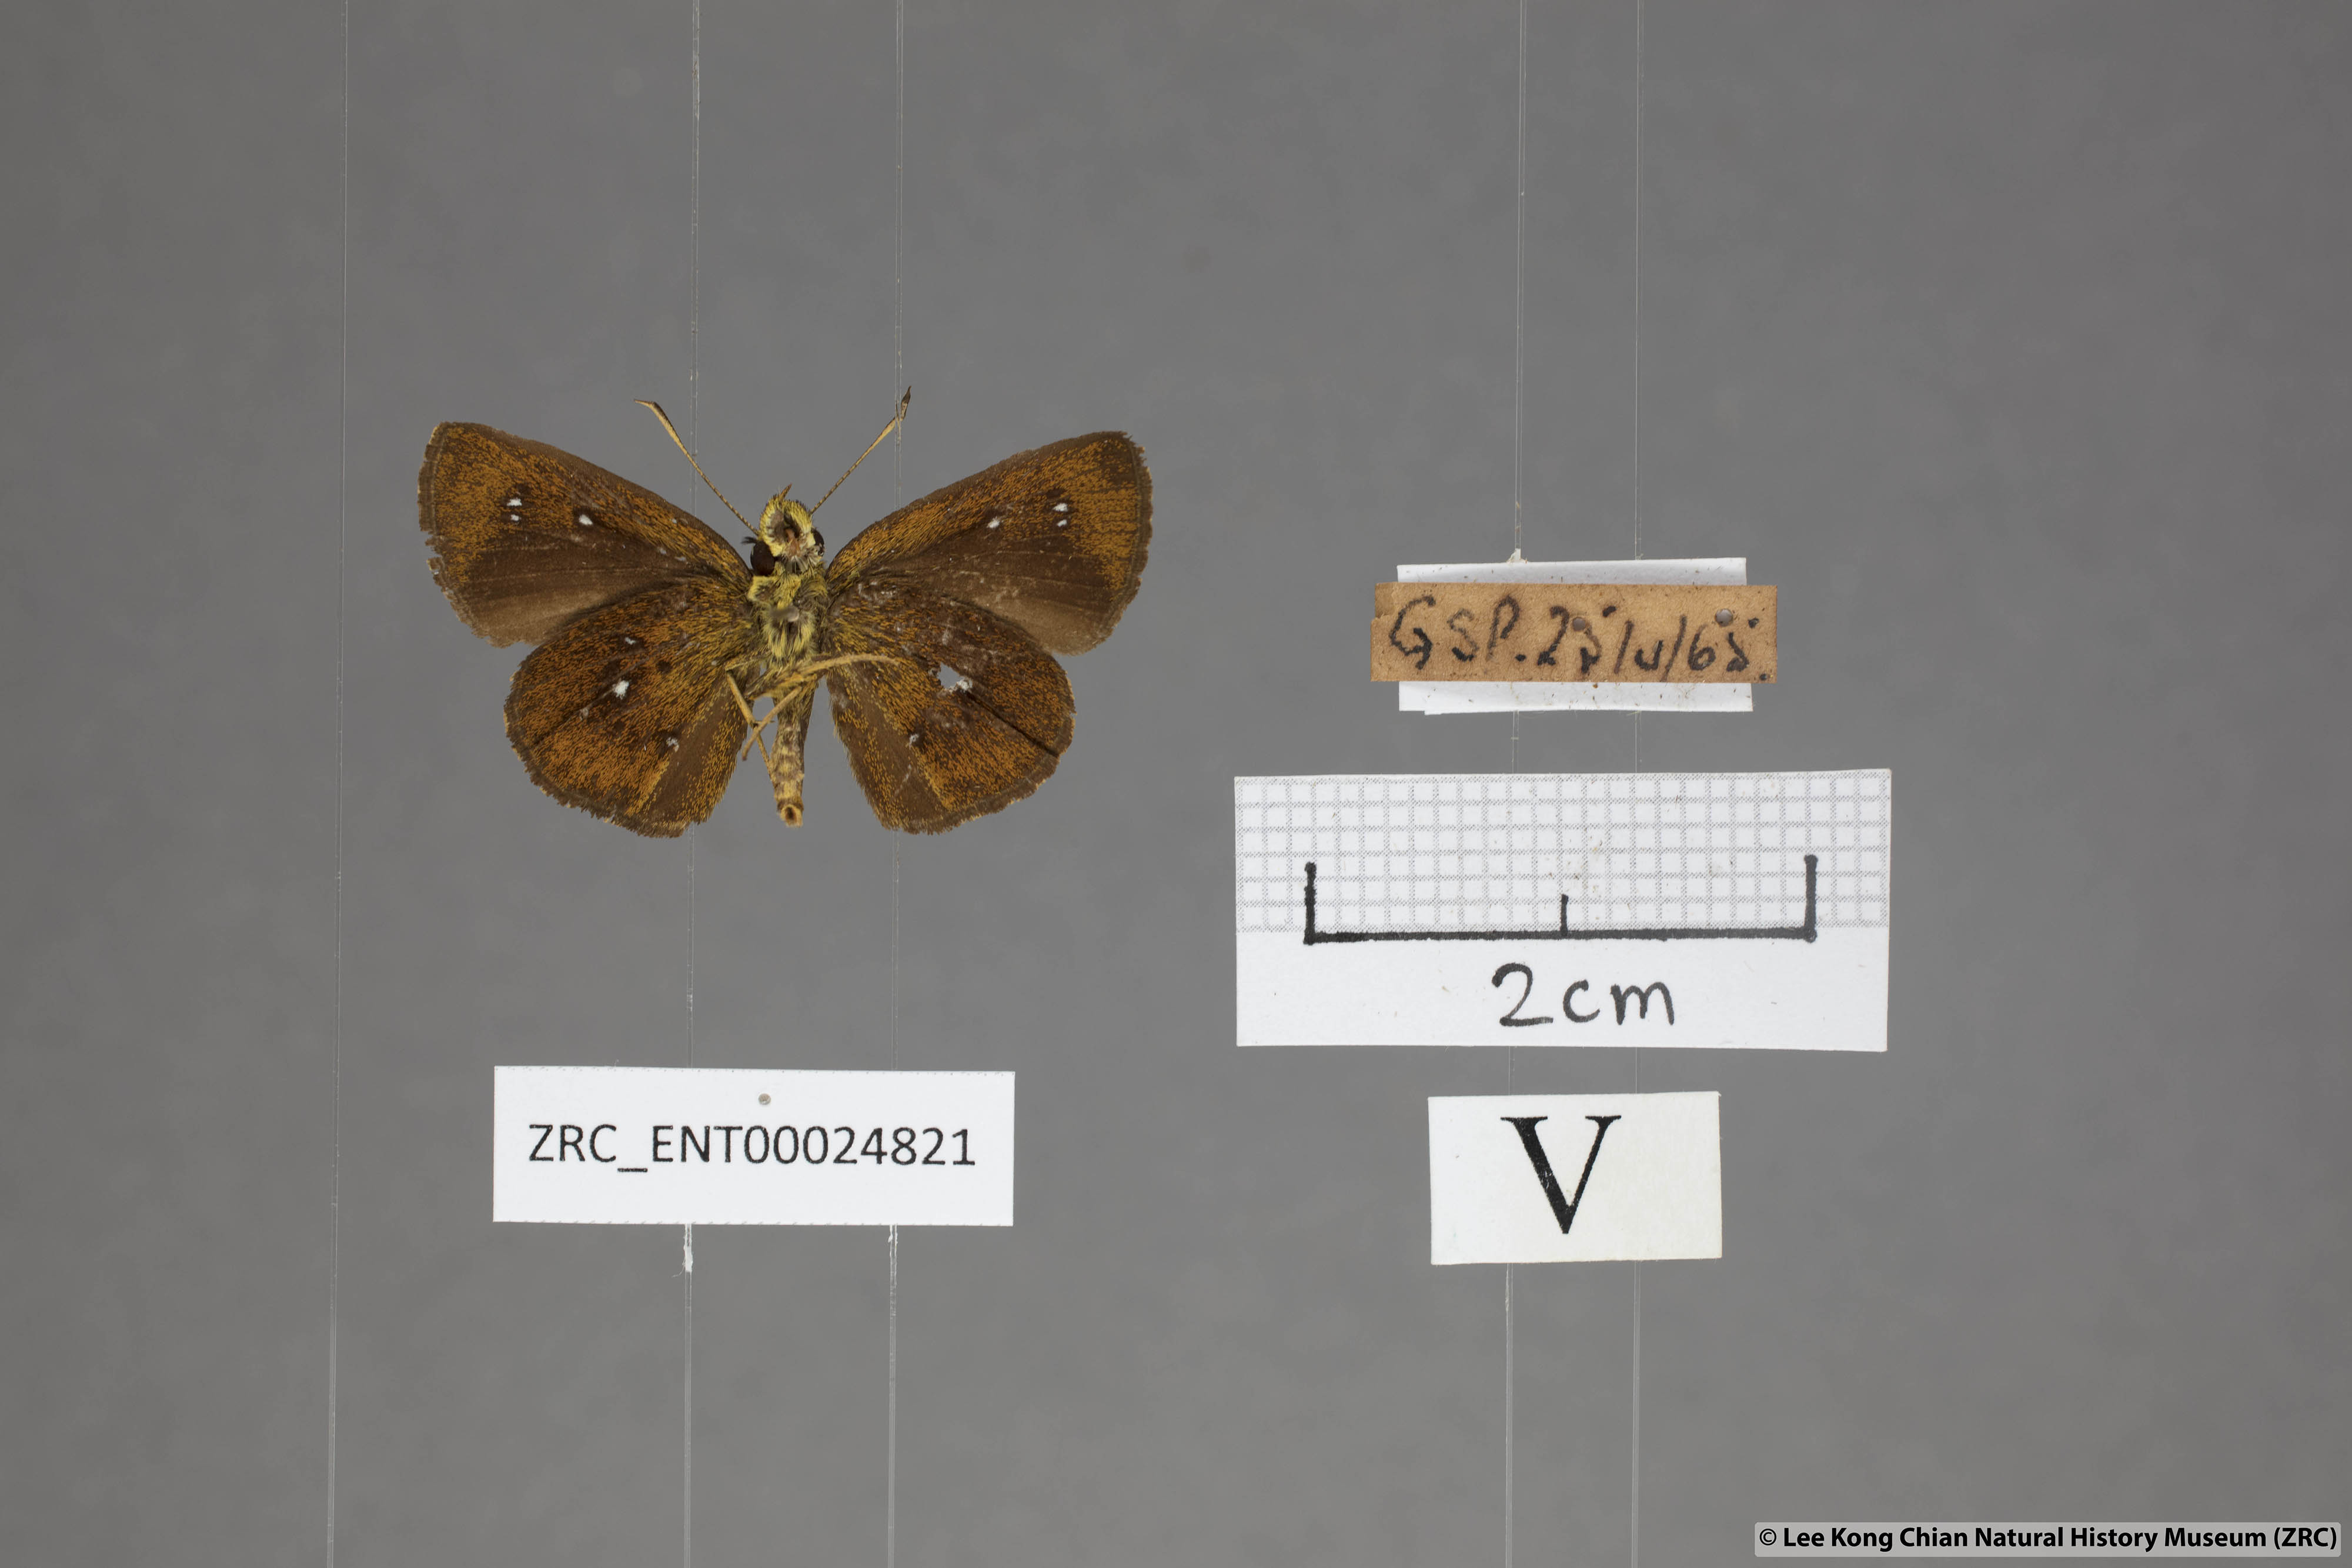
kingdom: Animalia
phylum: Arthropoda
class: Insecta
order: Lepidoptera
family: Hesperiidae
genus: Iambrix
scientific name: Iambrix salsala
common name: Chestnut bob
